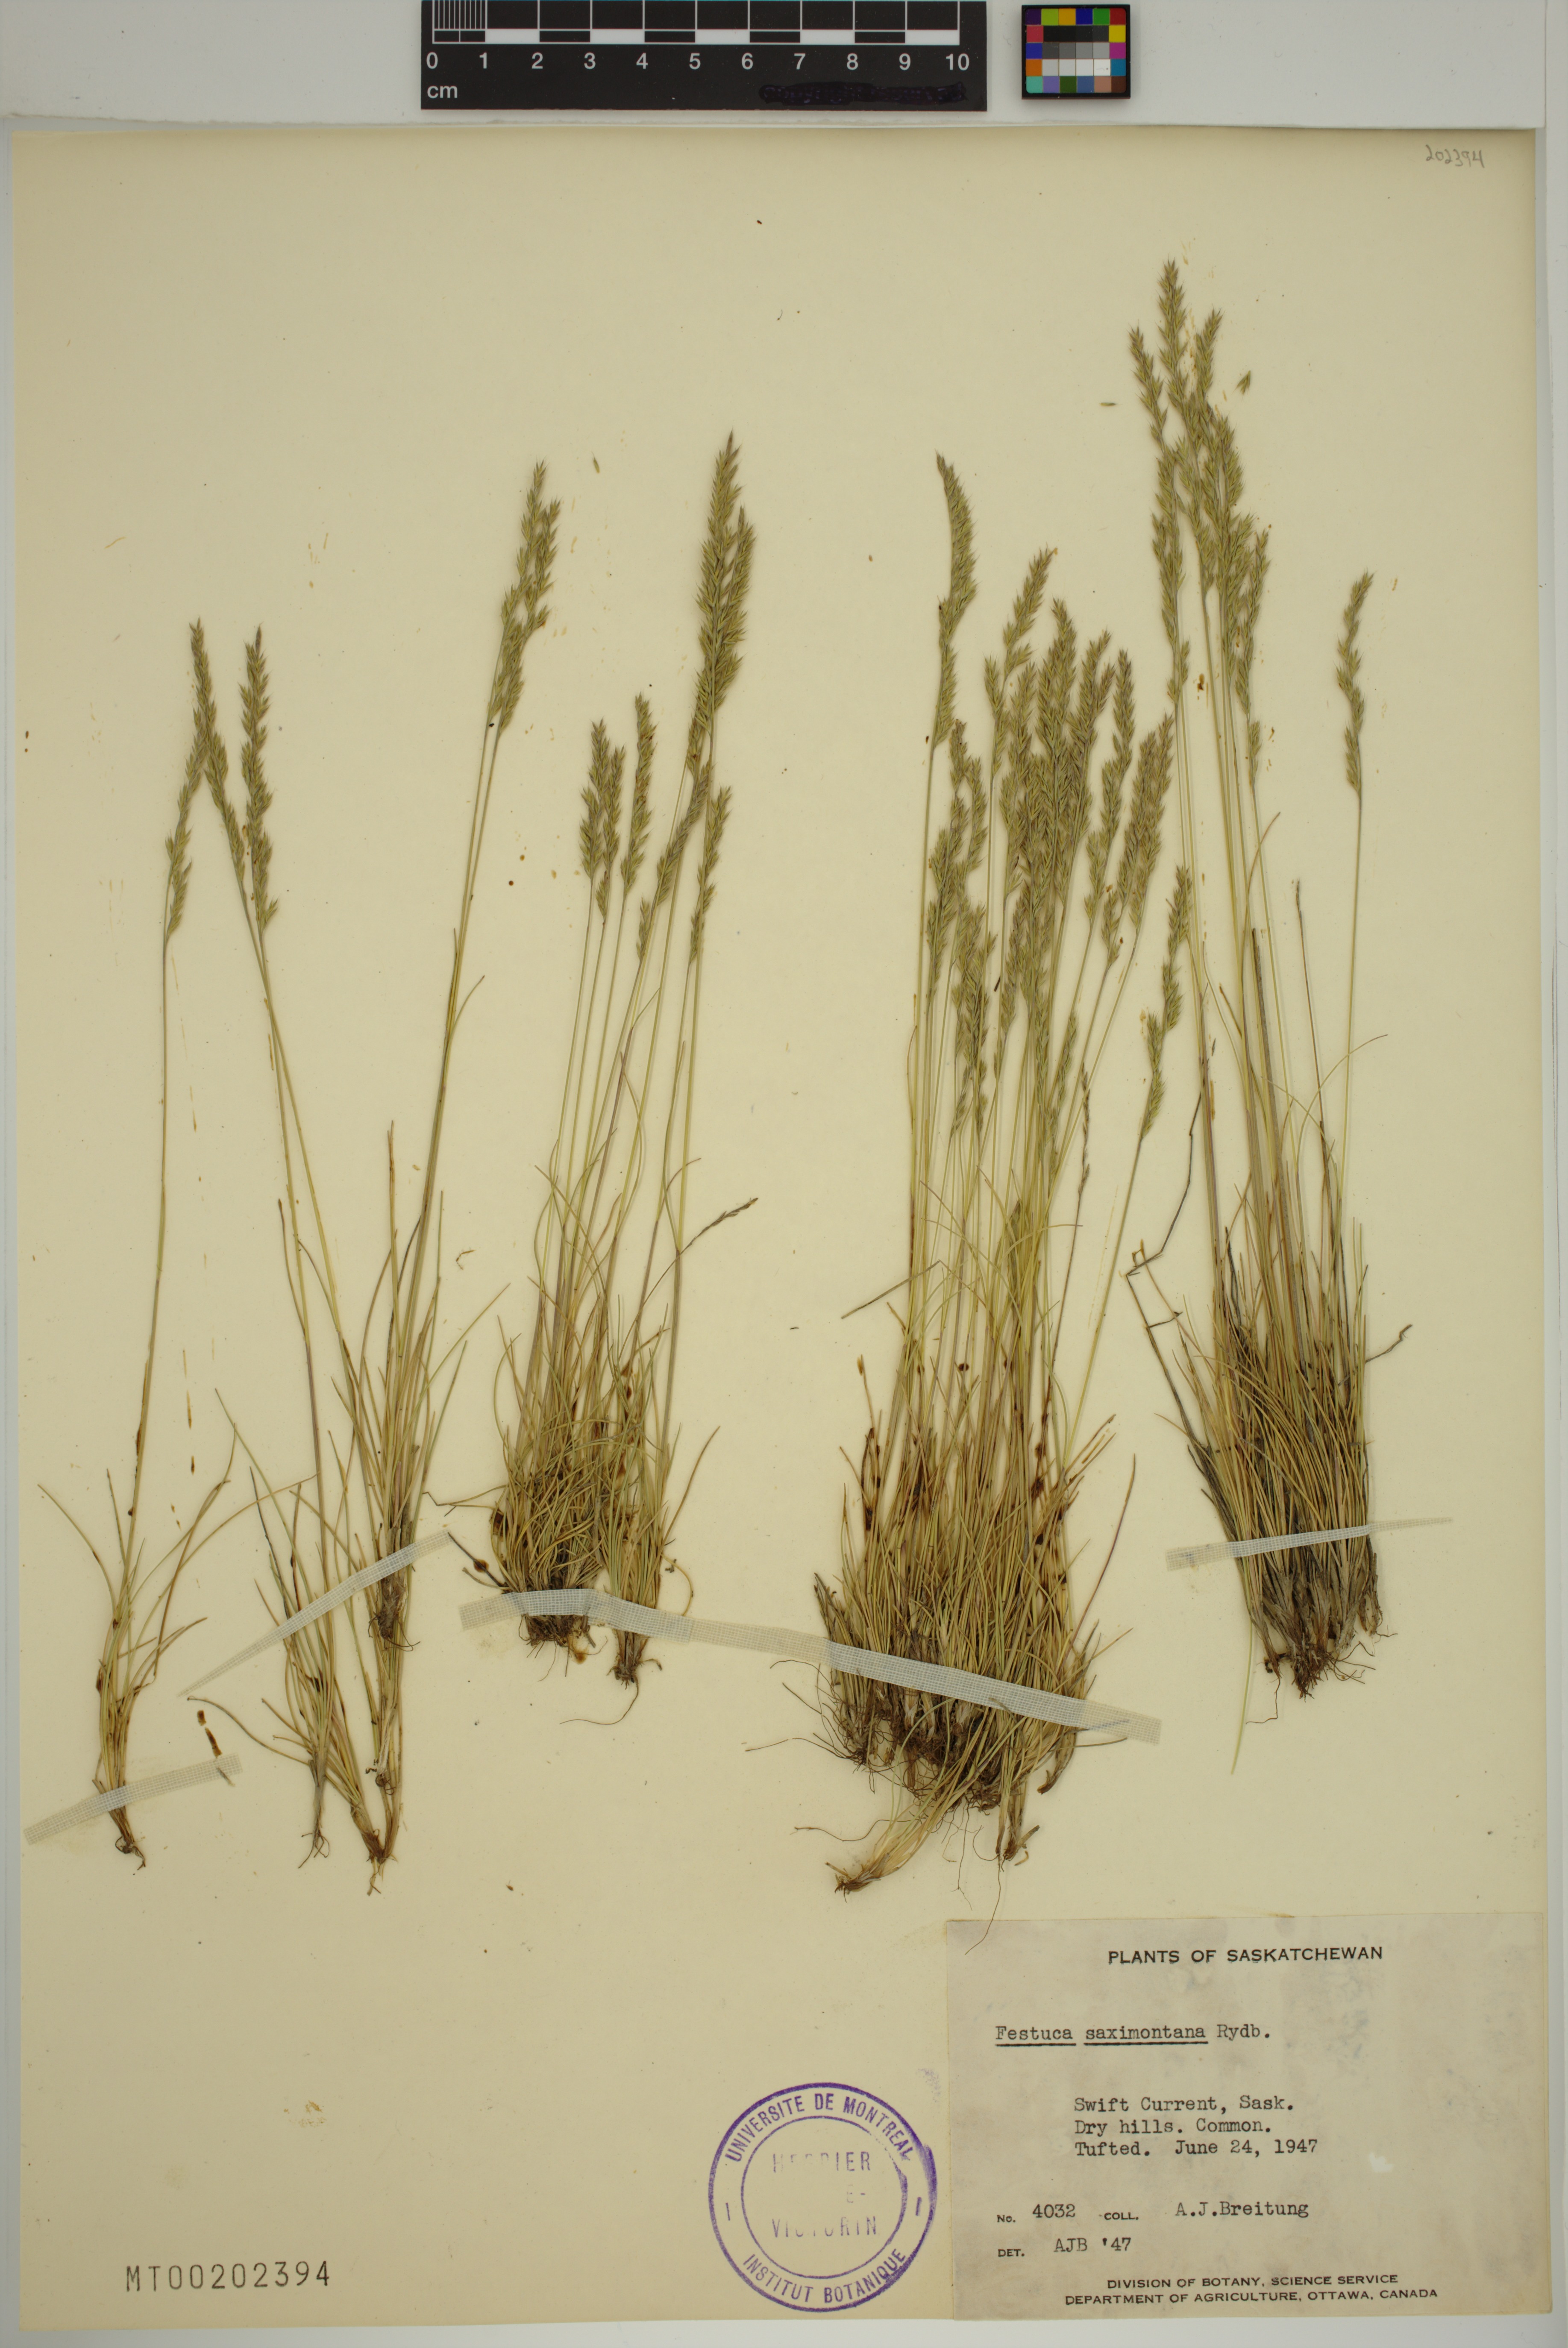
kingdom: Plantae
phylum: Tracheophyta
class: Liliopsida
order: Poales
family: Poaceae
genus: Festuca
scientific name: Festuca saximontana
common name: Mountain fescue
